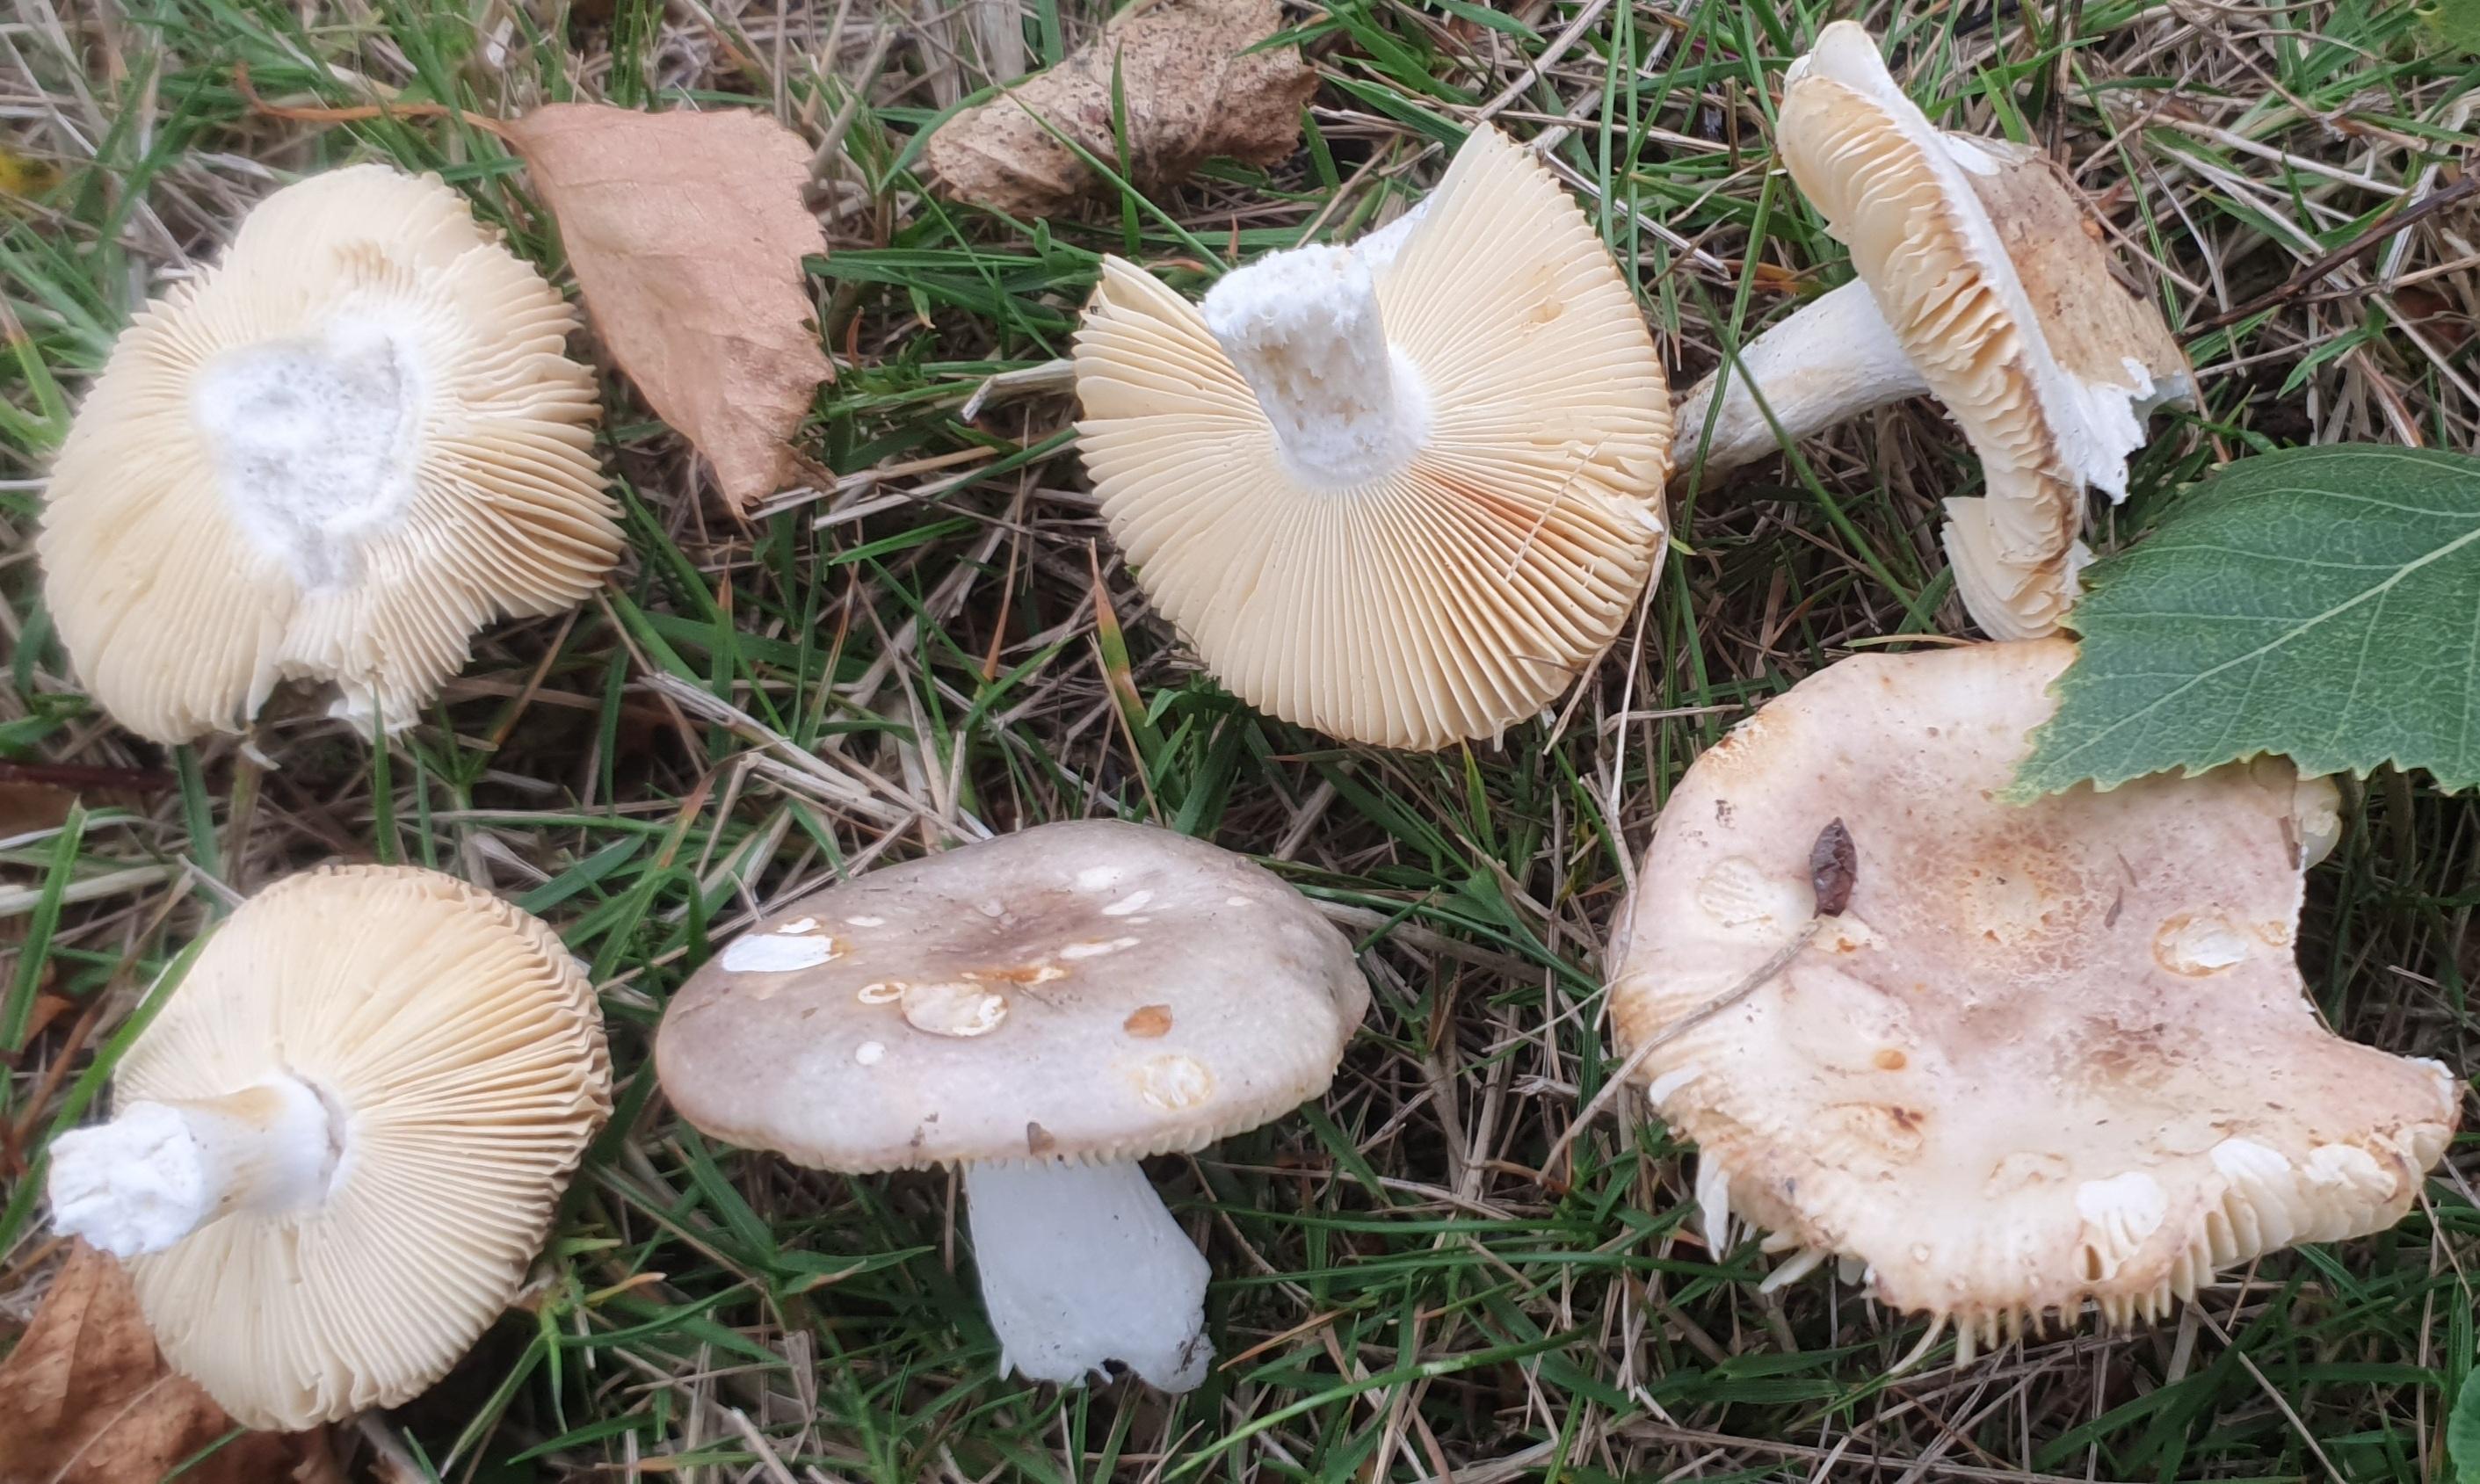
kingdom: Fungi
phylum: Basidiomycota
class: Agaricomycetes
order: Russulales
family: Russulaceae
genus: Russula
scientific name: Russula depallens
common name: falmende skørhat
